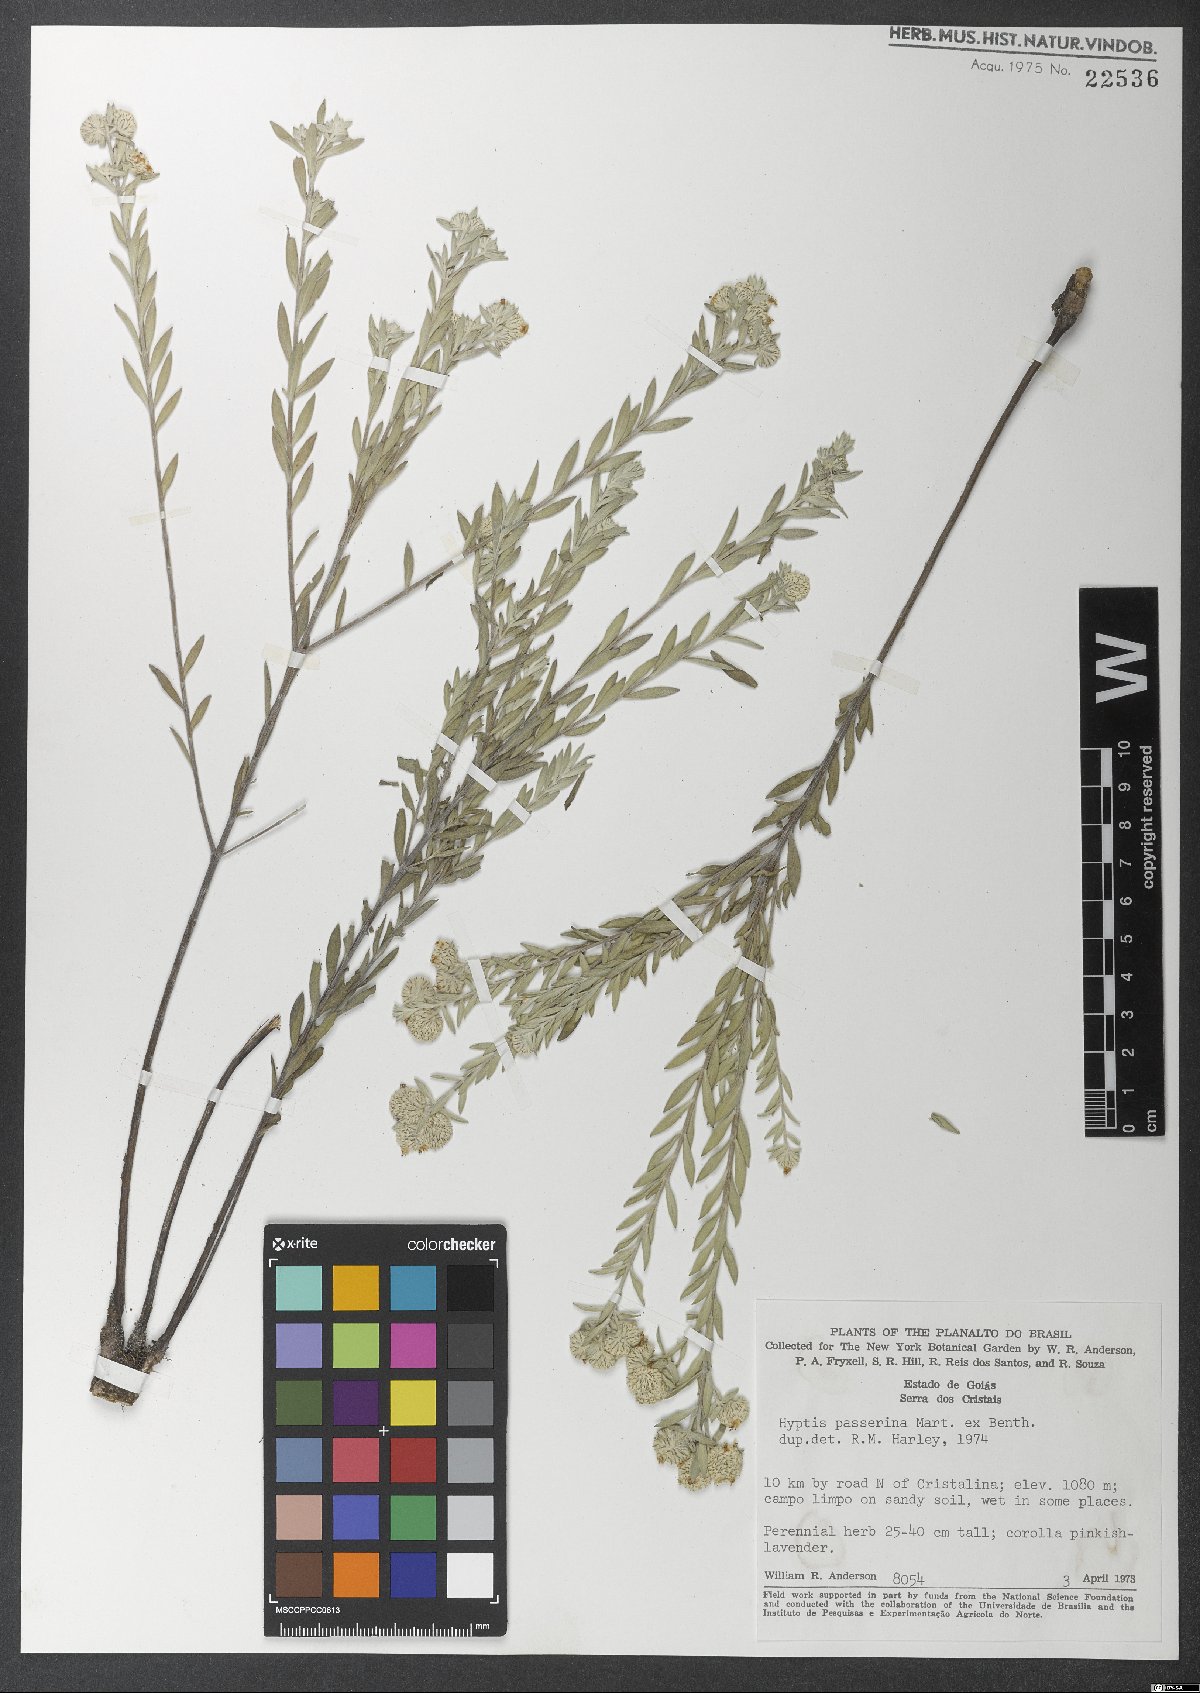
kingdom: Plantae
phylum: Tracheophyta
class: Magnoliopsida
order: Lamiales
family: Lamiaceae
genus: Hyptis
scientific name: Hyptis passerina
